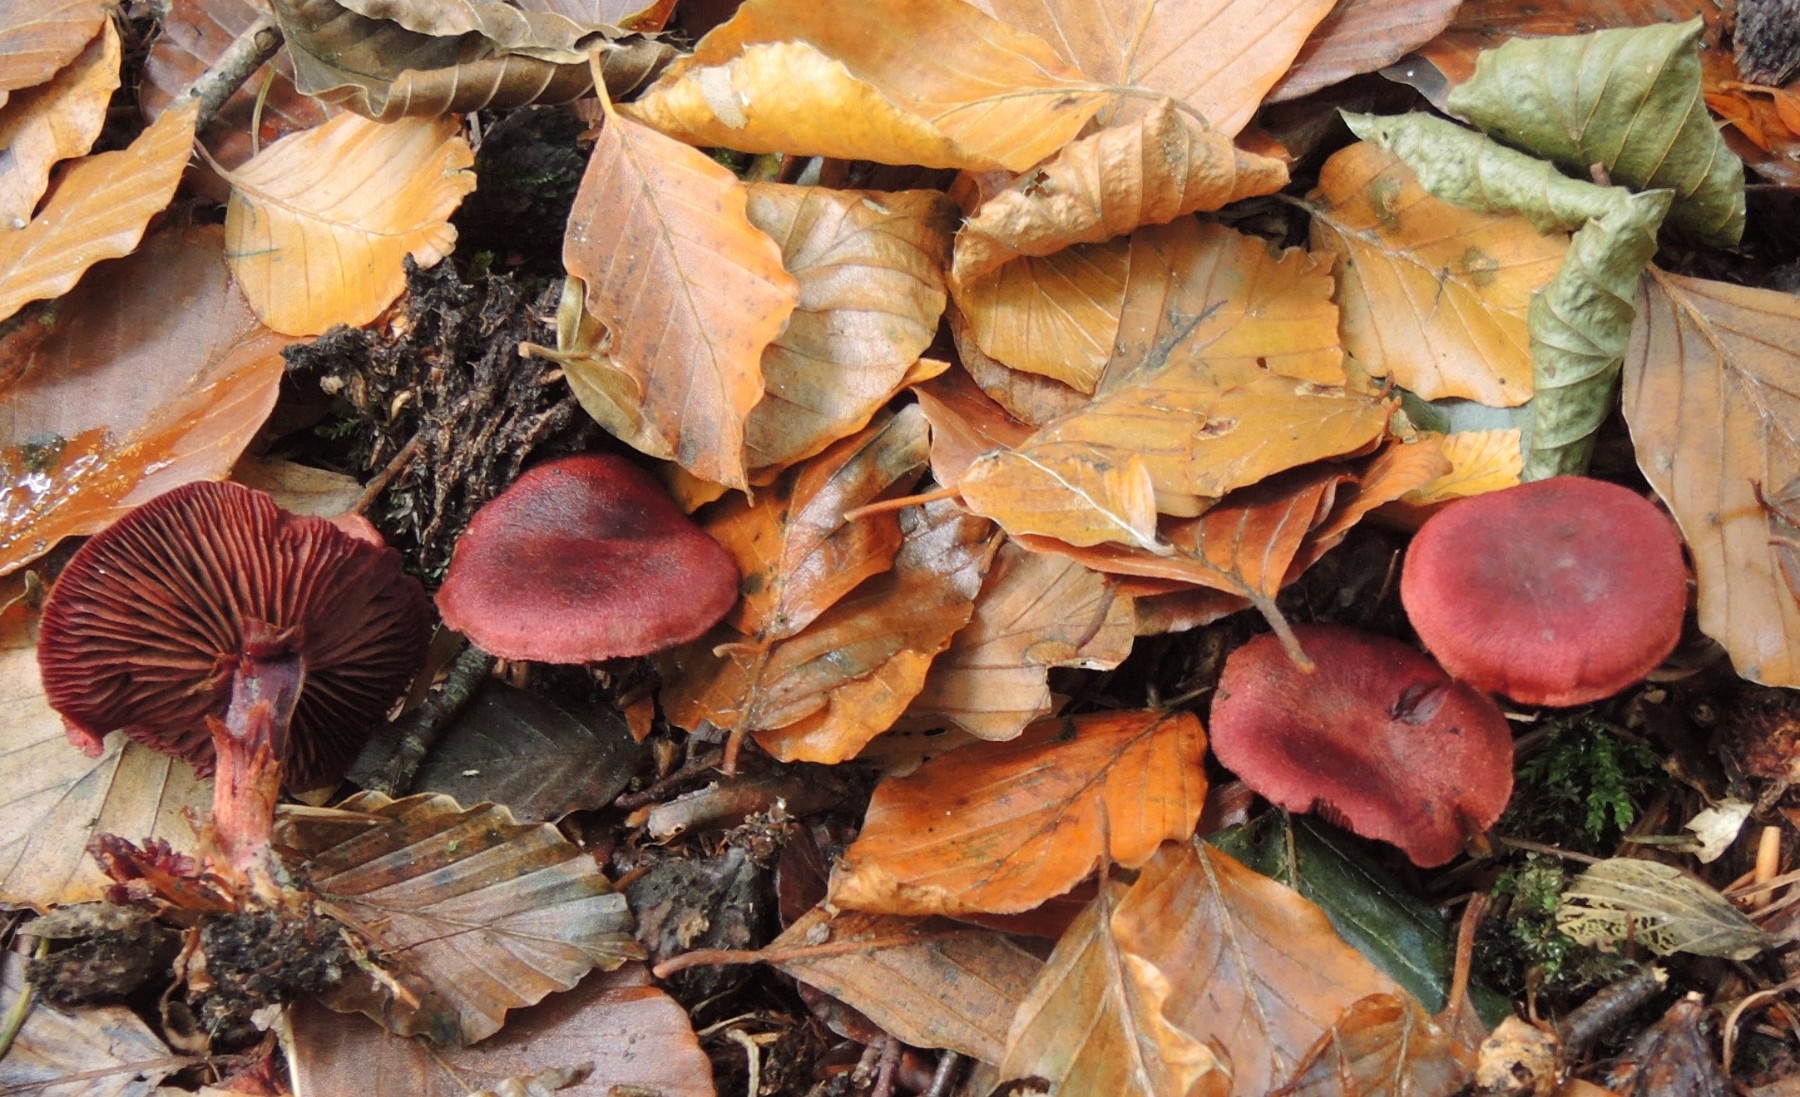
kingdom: Fungi
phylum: Basidiomycota
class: Agaricomycetes
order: Agaricales
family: Cortinariaceae
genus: Cortinarius
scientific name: Cortinarius sanguineus
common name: Bloodred webcap
